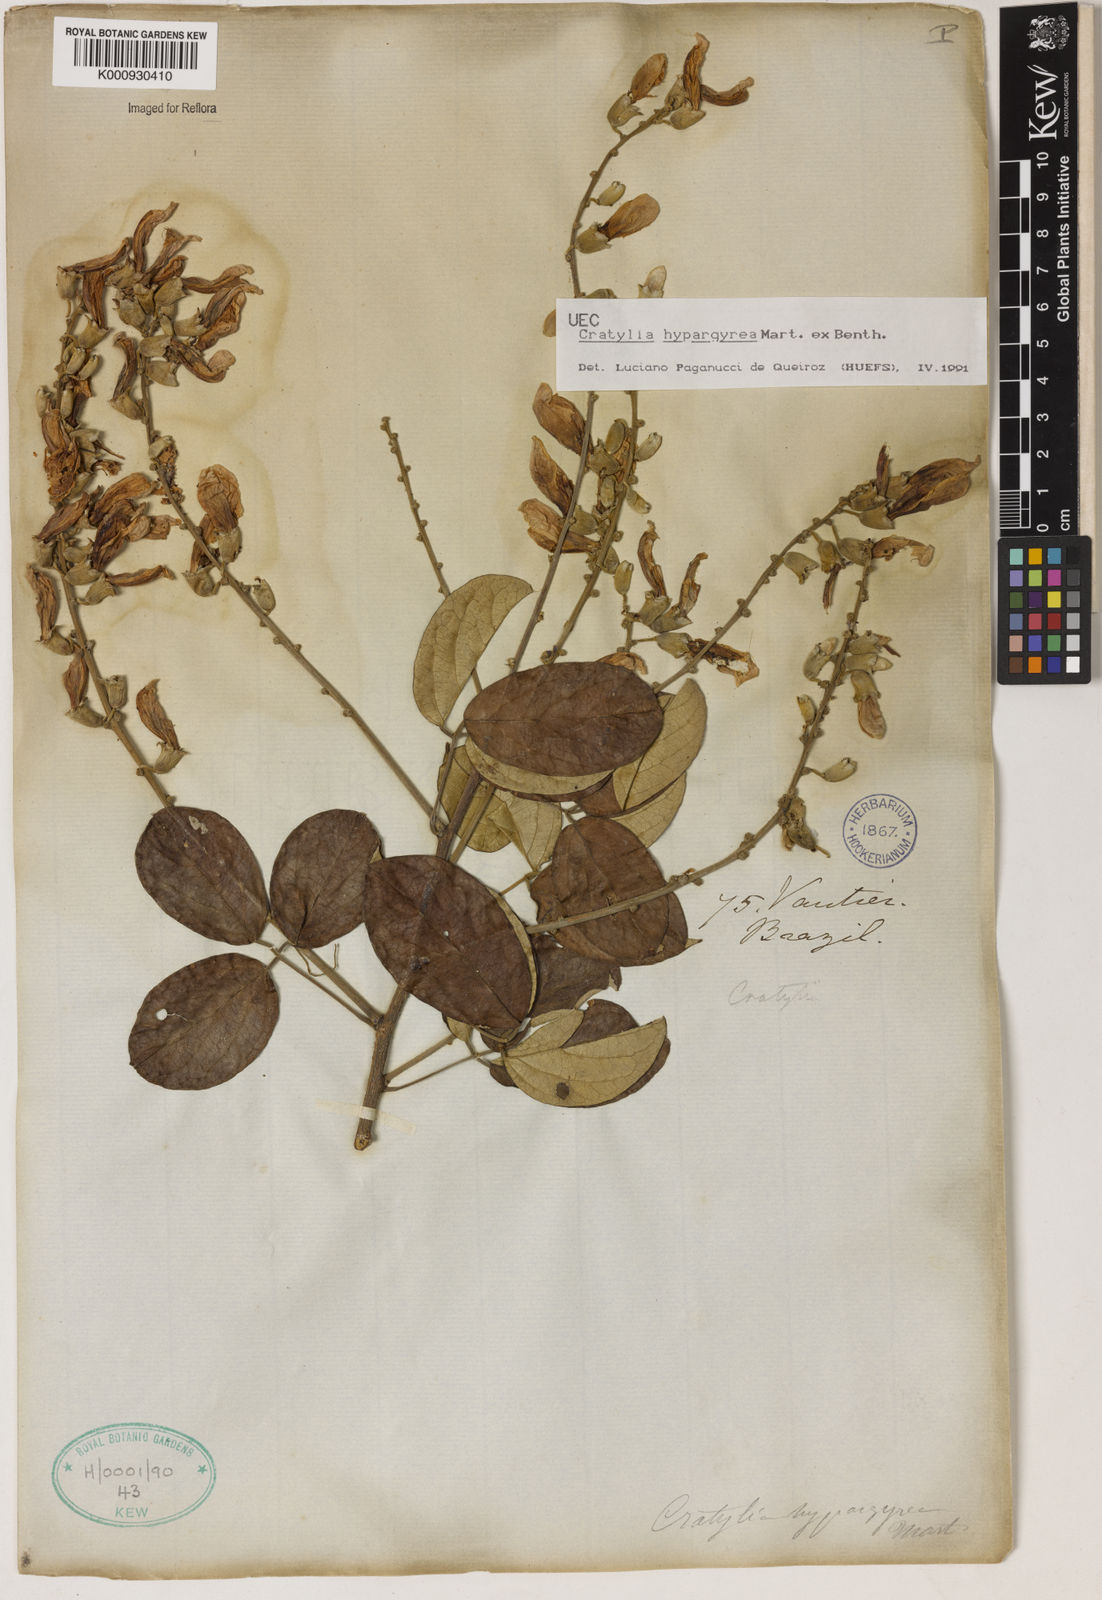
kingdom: Plantae
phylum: Tracheophyta
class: Magnoliopsida
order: Fabales
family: Fabaceae
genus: Cratylia
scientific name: Cratylia
